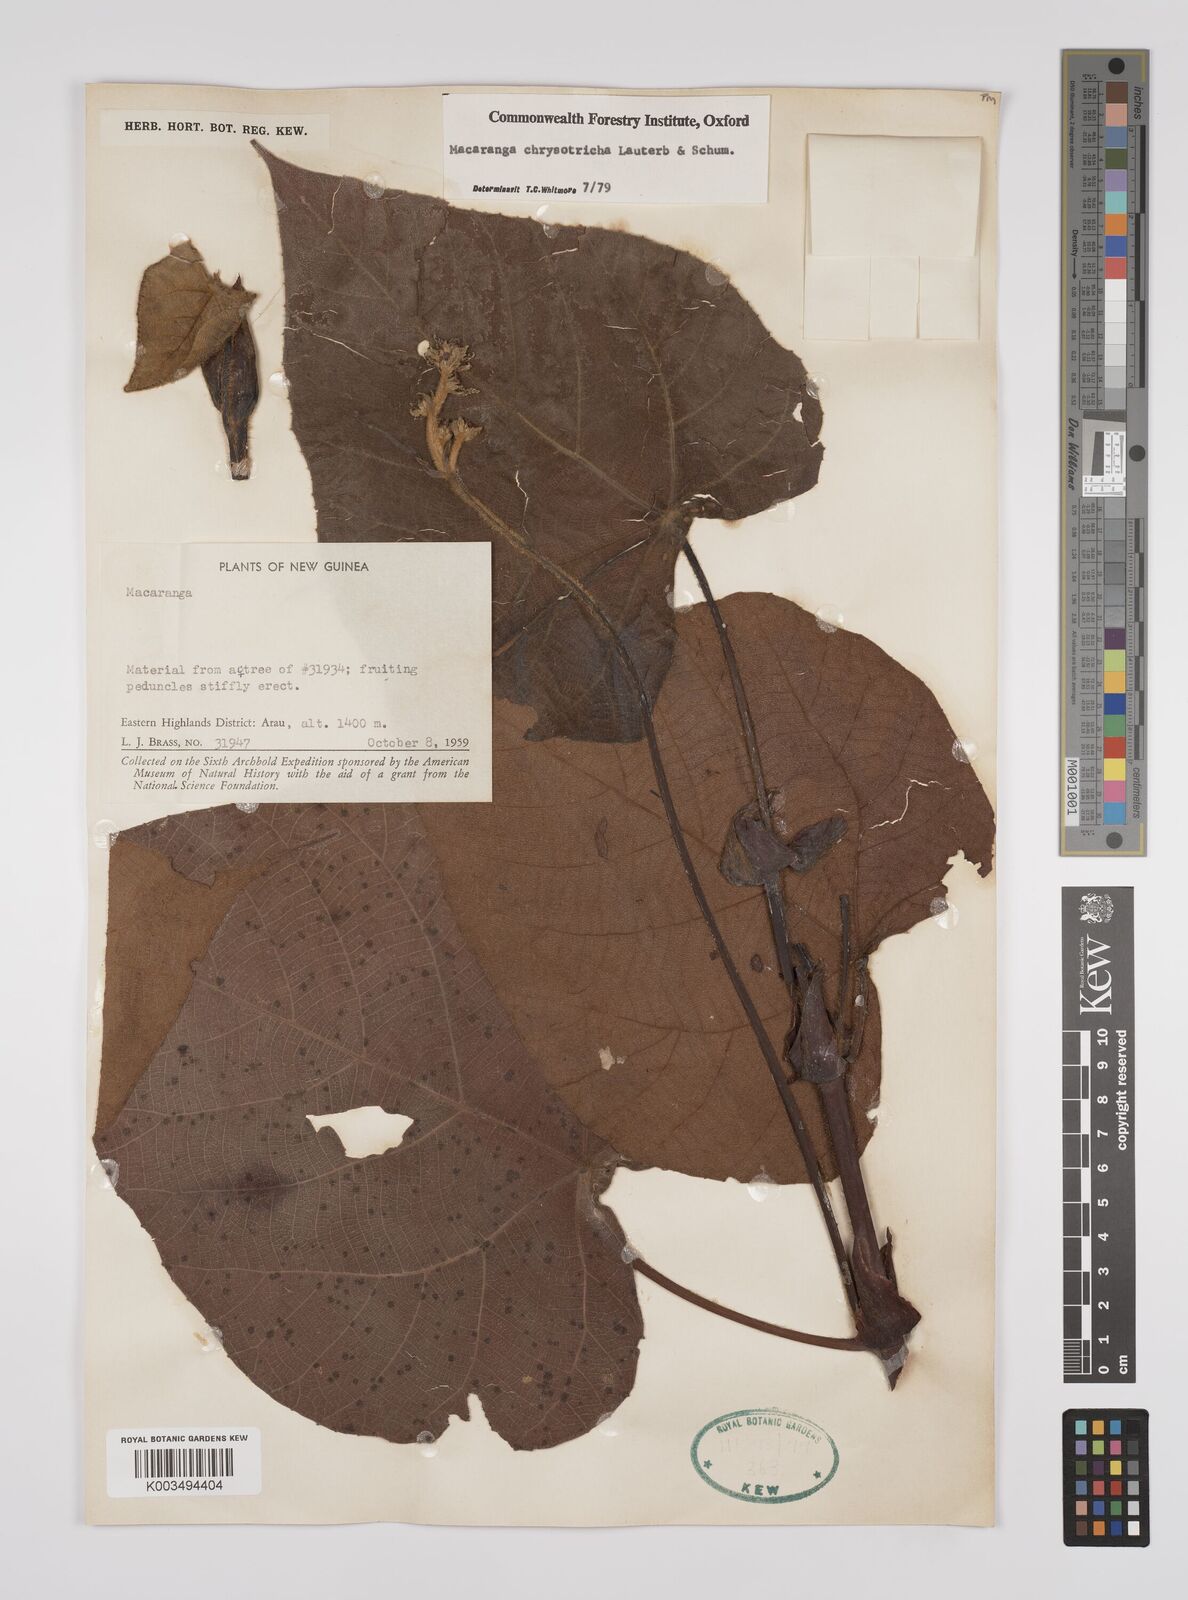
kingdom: Plantae
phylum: Tracheophyta
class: Magnoliopsida
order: Malpighiales
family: Euphorbiaceae
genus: Macaranga
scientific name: Macaranga chrysotricha
